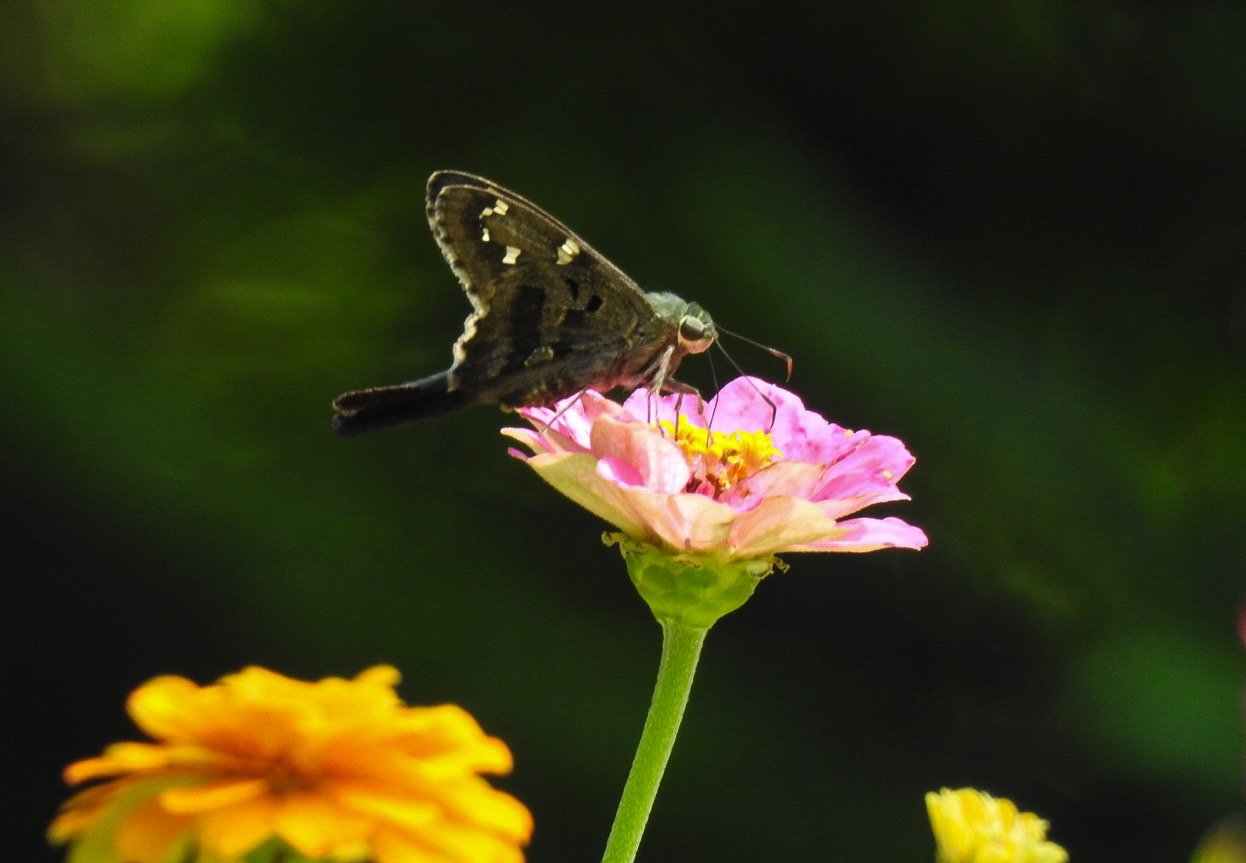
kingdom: Animalia
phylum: Arthropoda
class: Insecta
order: Lepidoptera
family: Hesperiidae
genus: Urbanus
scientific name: Urbanus proteus
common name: Long-tailed Skipper
